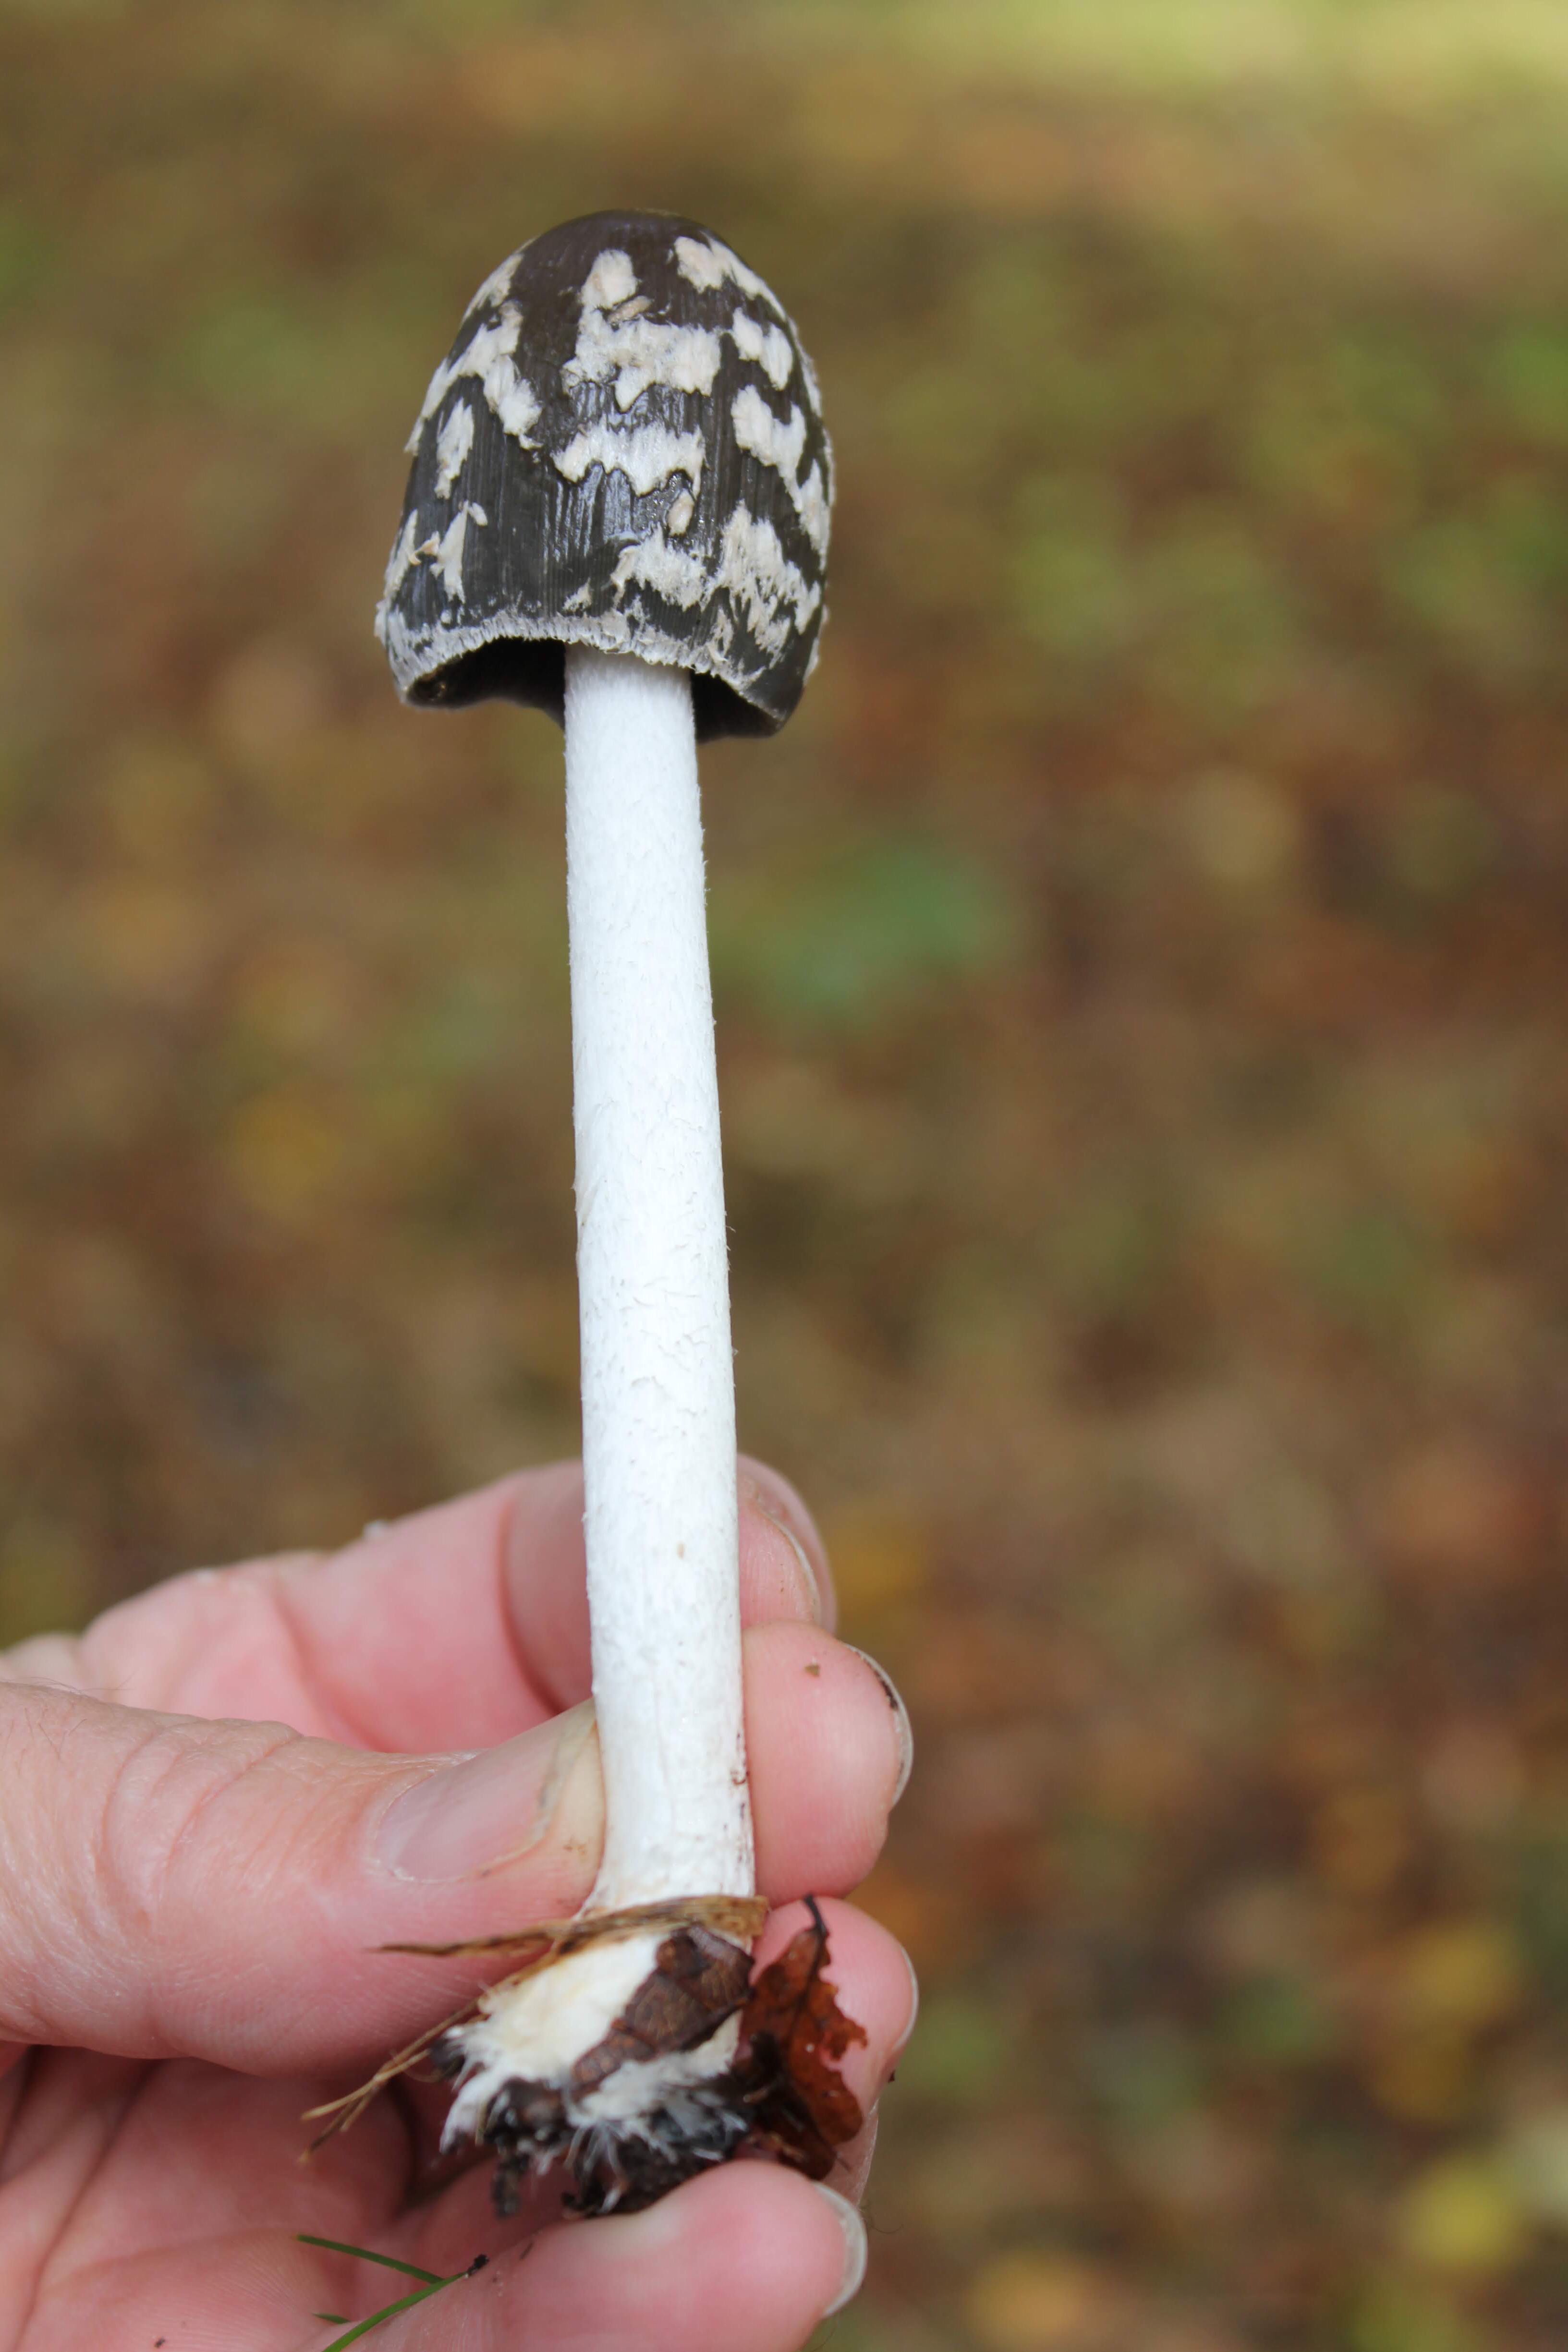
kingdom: Fungi
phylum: Basidiomycota
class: Agaricomycetes
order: Agaricales
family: Psathyrellaceae
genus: Coprinopsis
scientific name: Coprinopsis picacea
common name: skade-blækhat
